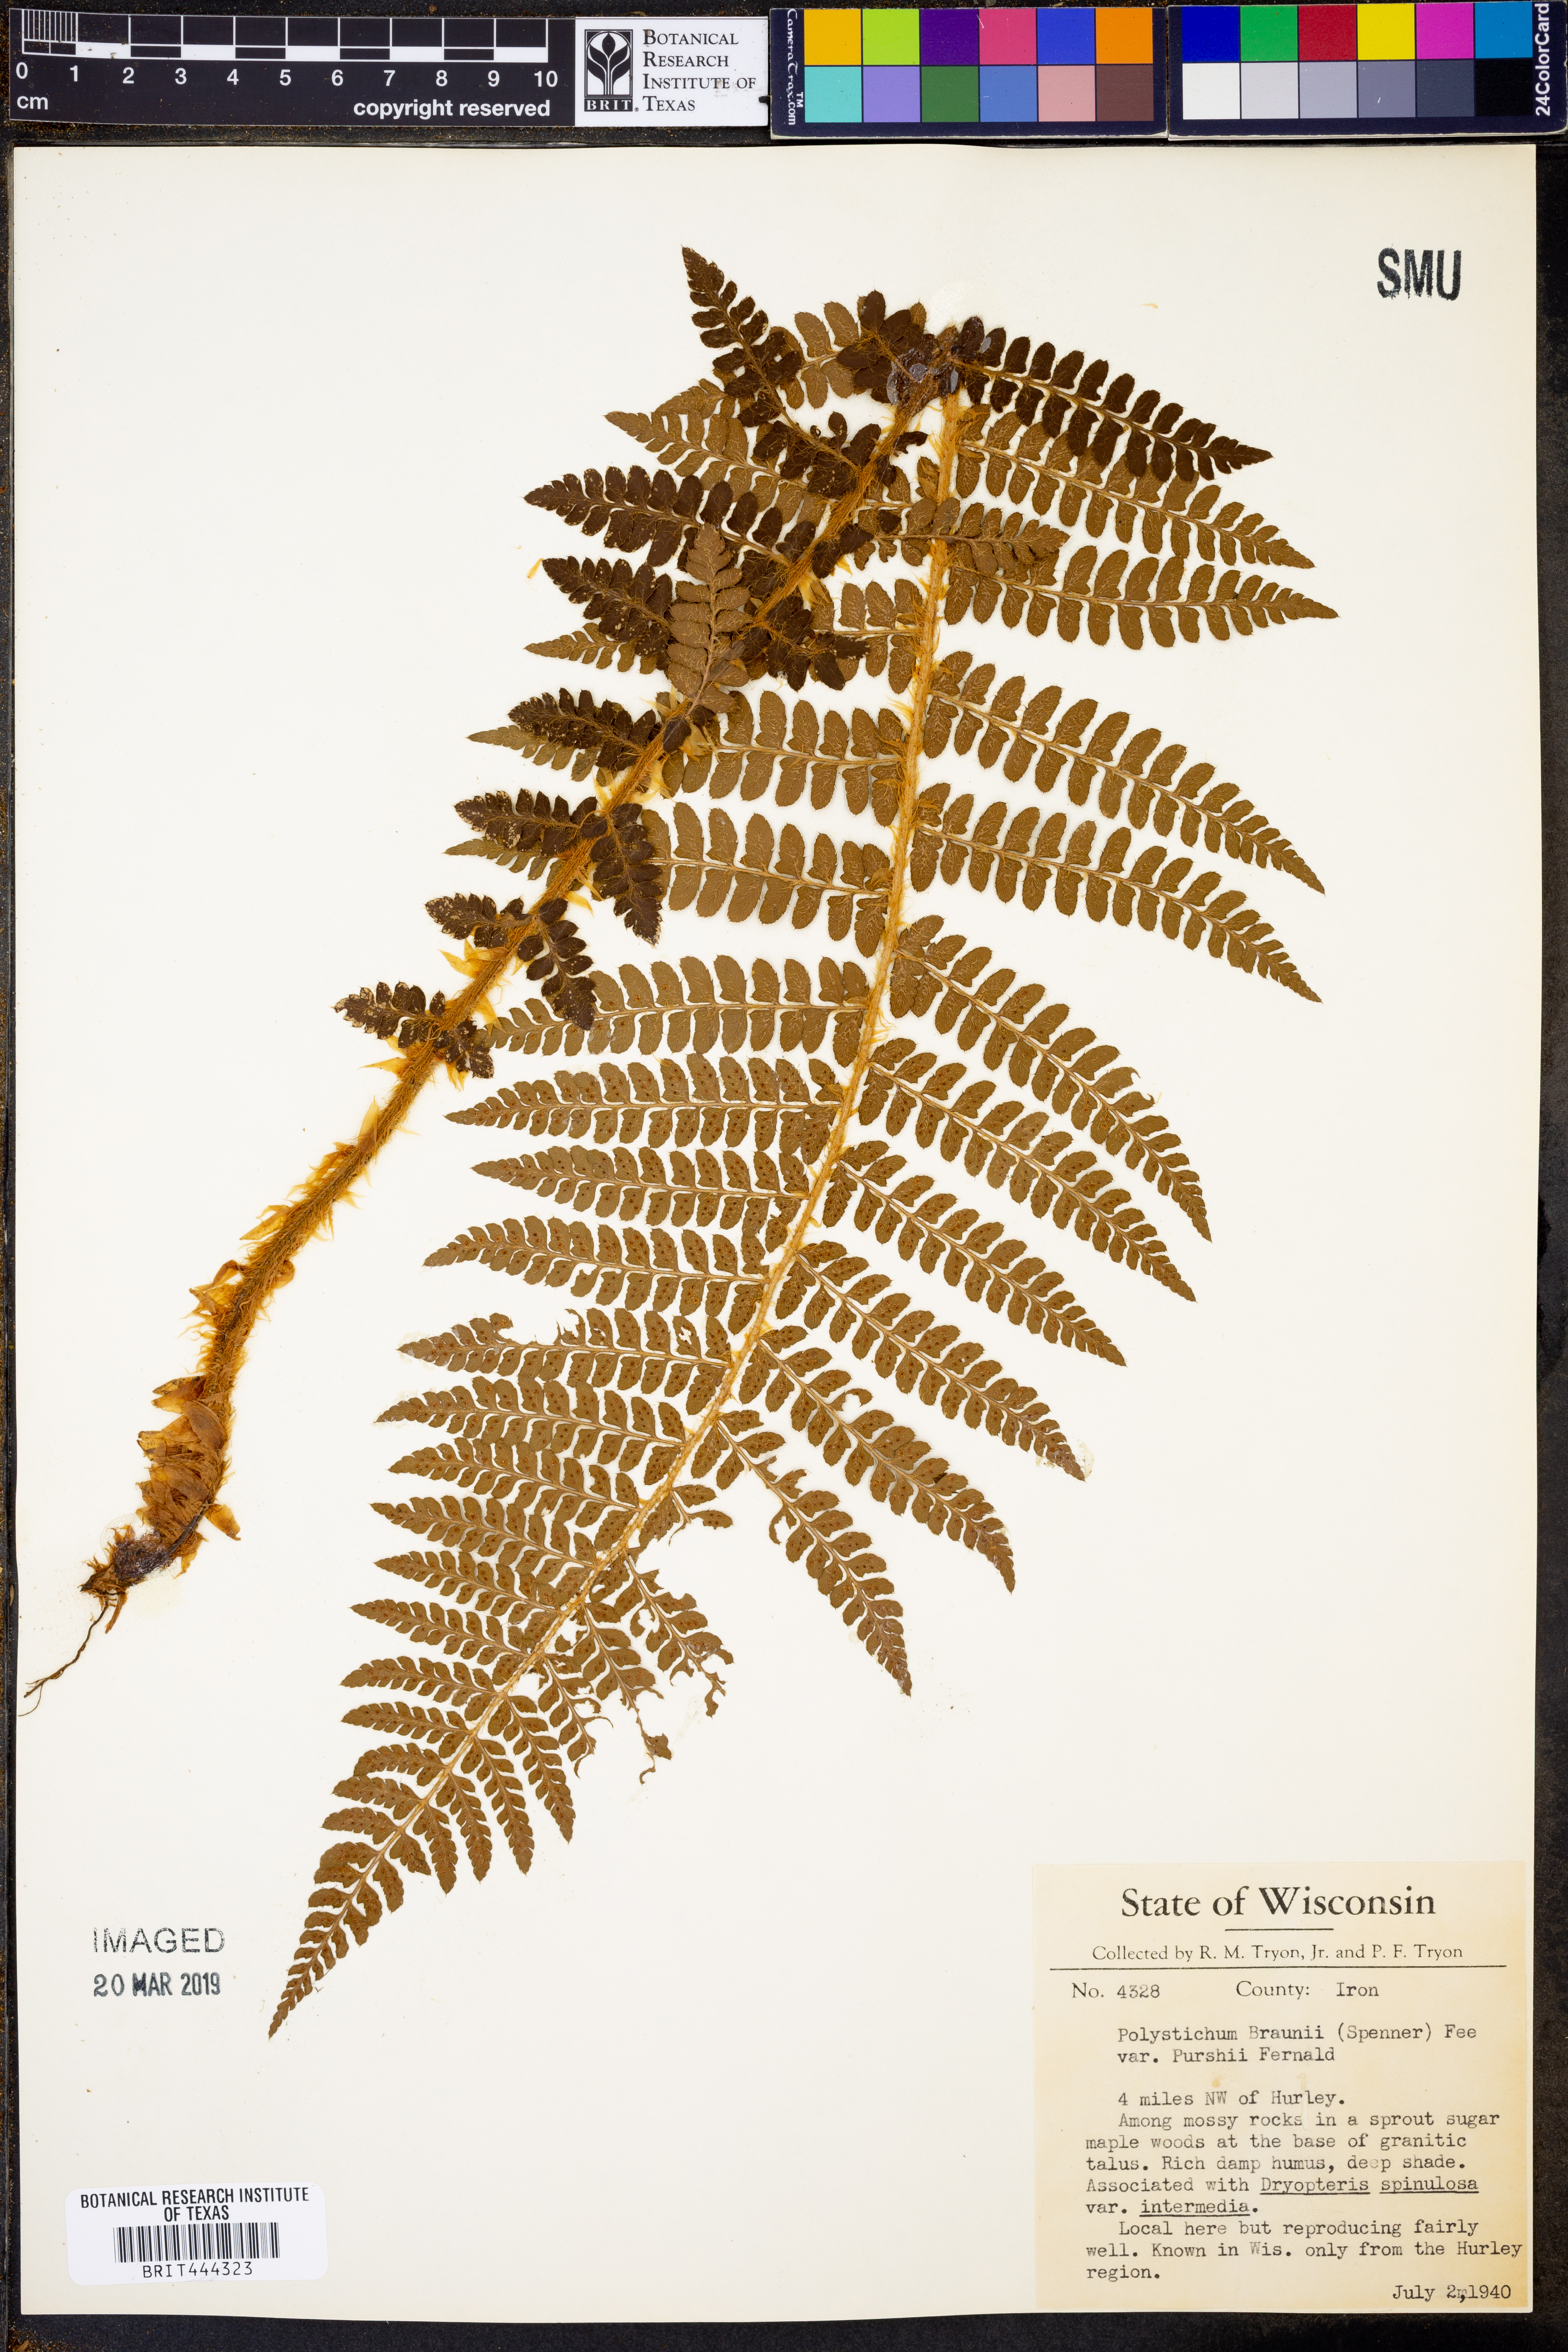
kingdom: Plantae
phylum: Tracheophyta
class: Polypodiopsida
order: Polypodiales
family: Dryopteridaceae
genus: Polystichum
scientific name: Polystichum braunii
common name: Braun's holly fern
